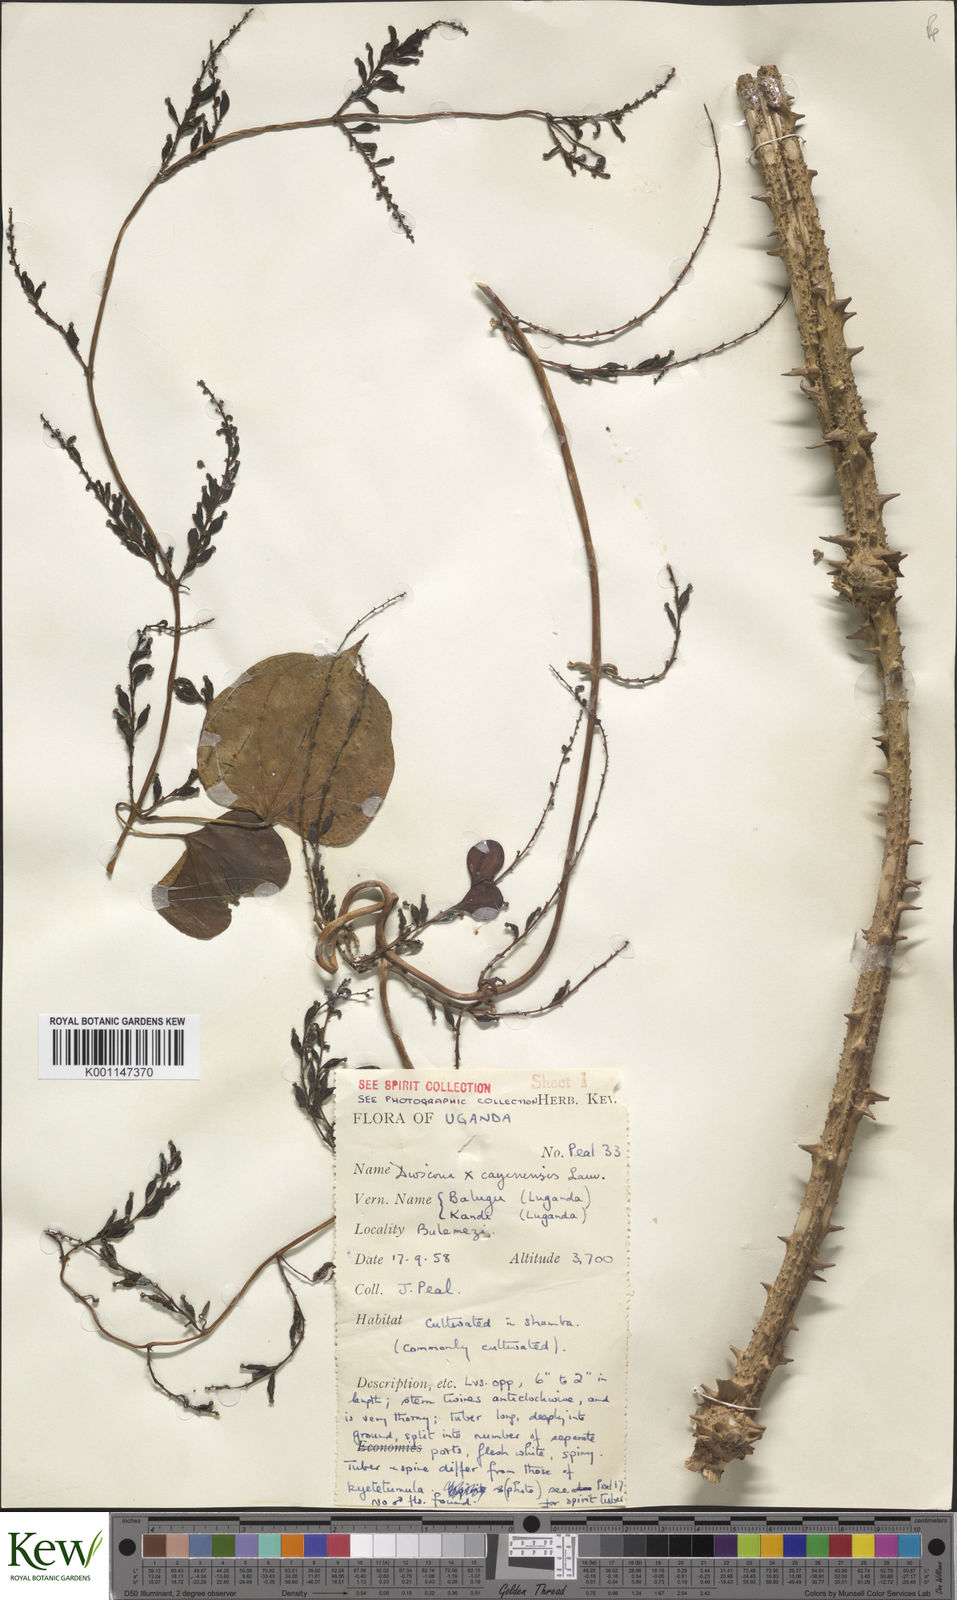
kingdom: Plantae
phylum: Tracheophyta
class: Liliopsida
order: Dioscoreales
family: Dioscoreaceae
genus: Dioscorea
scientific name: Dioscorea cayenensis
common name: Attoto yam
